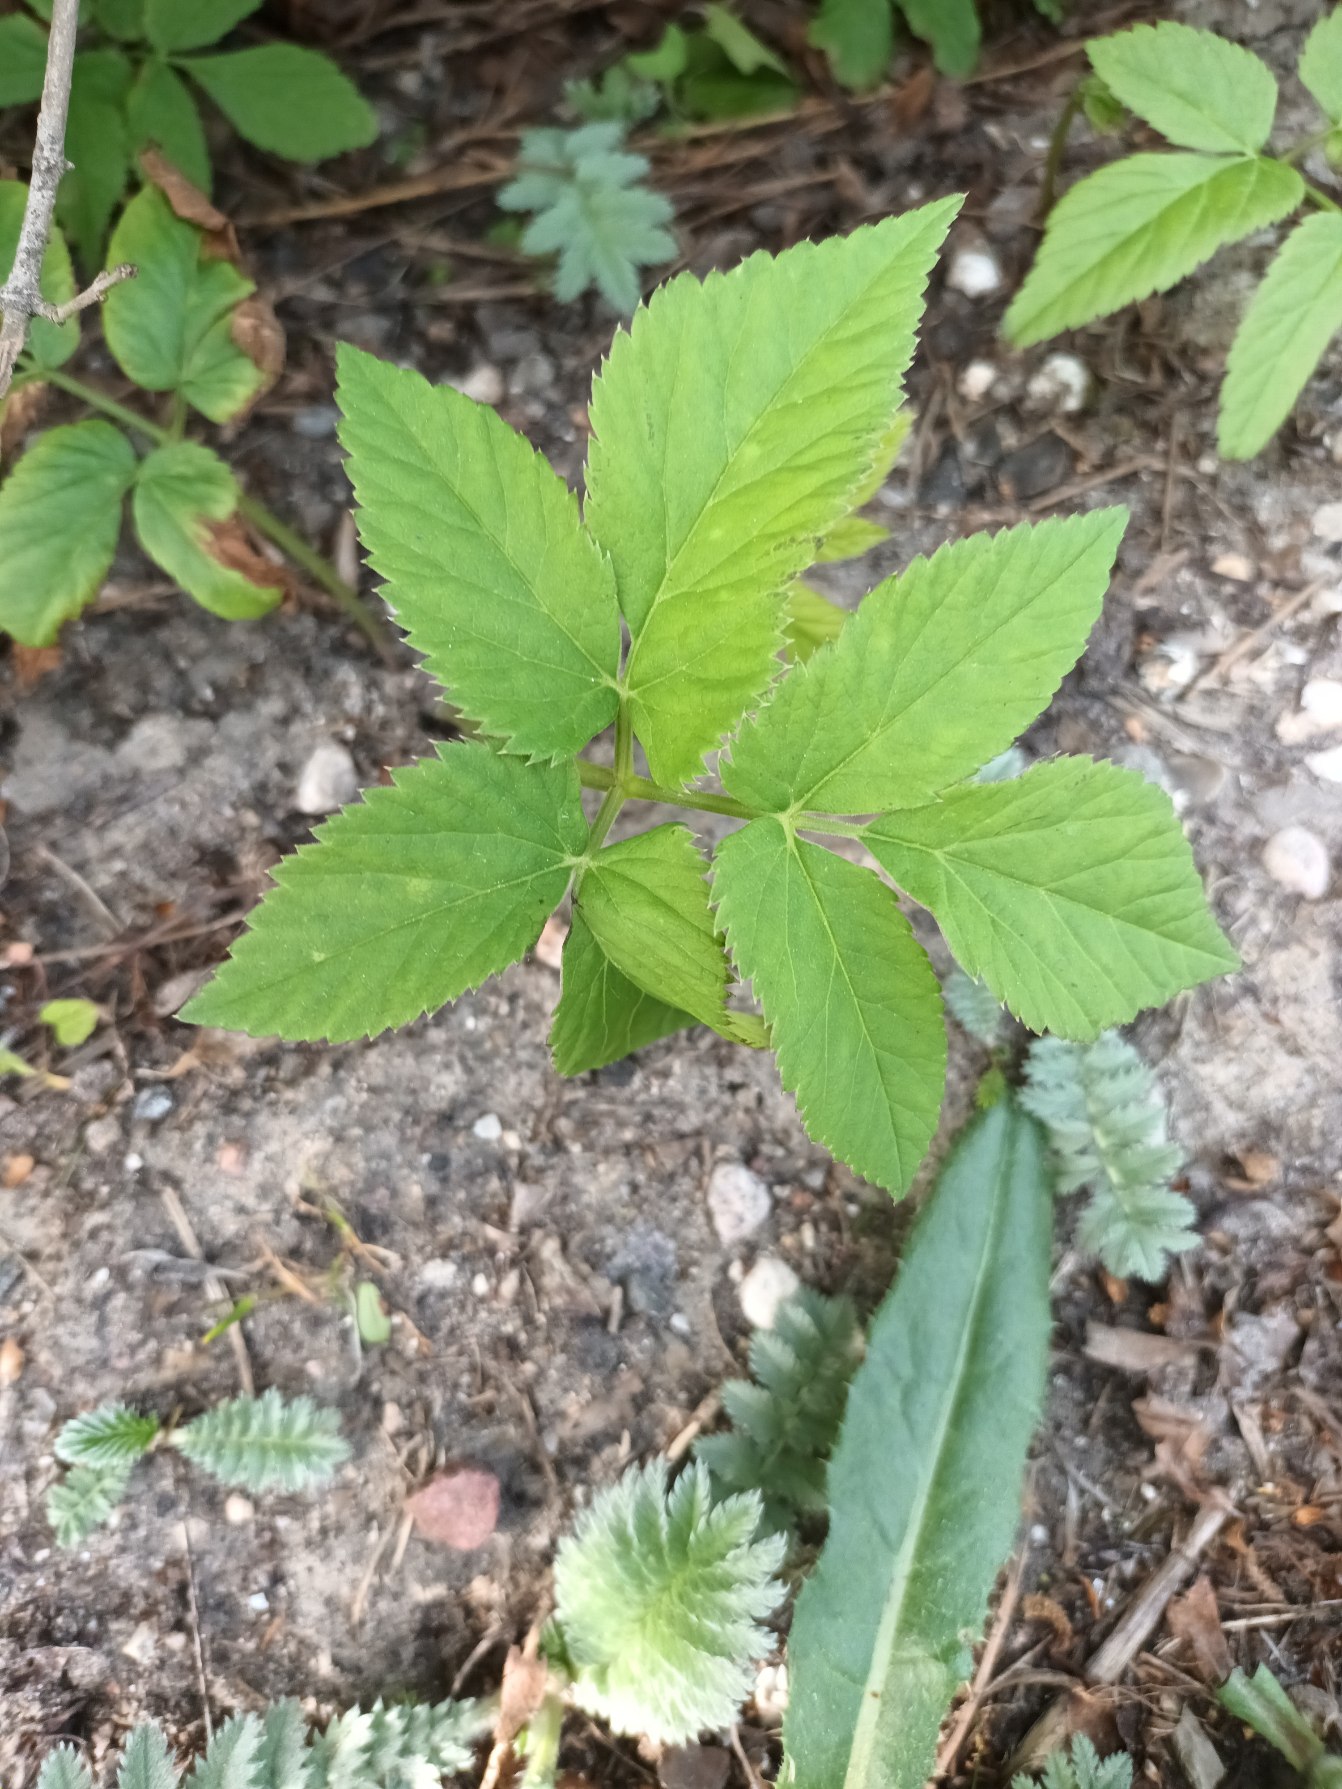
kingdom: Plantae
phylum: Tracheophyta
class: Magnoliopsida
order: Apiales
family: Apiaceae
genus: Aegopodium
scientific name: Aegopodium podagraria
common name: Skvalderkål
